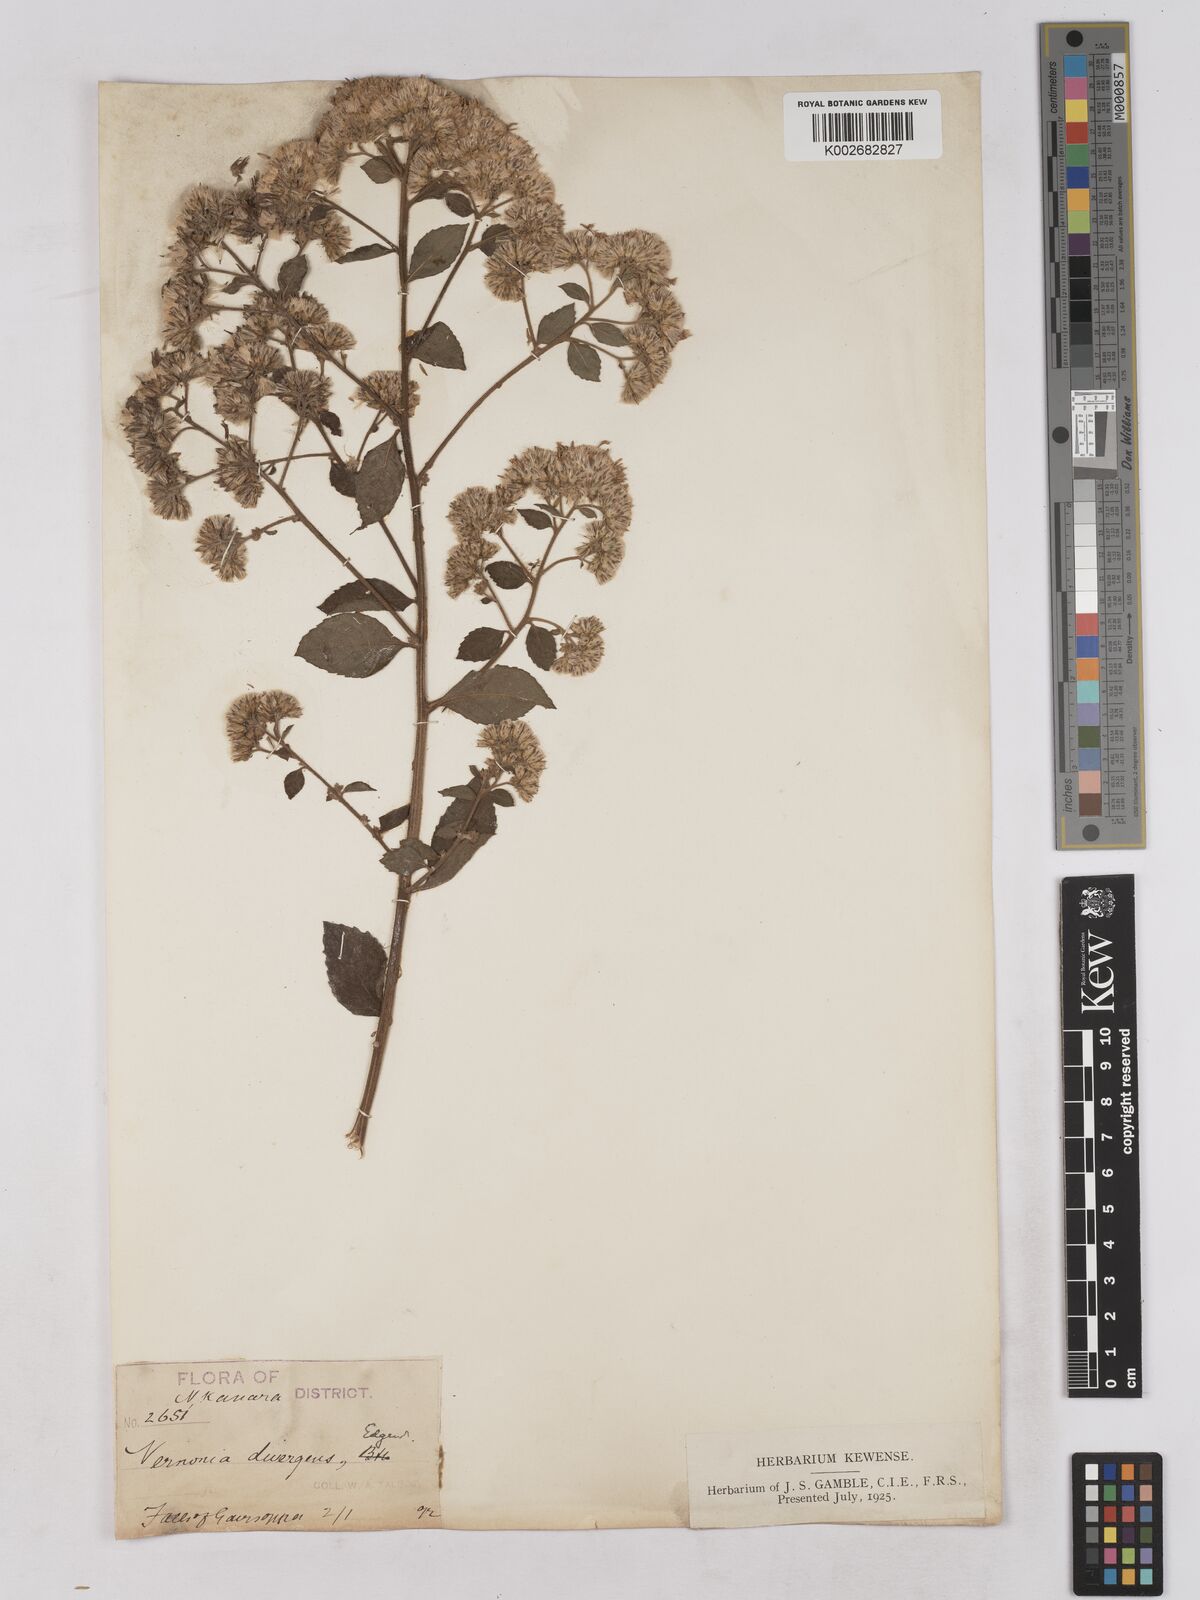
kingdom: Plantae
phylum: Tracheophyta
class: Magnoliopsida
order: Asterales
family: Asteraceae
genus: Acilepis
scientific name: Acilepis divergens
